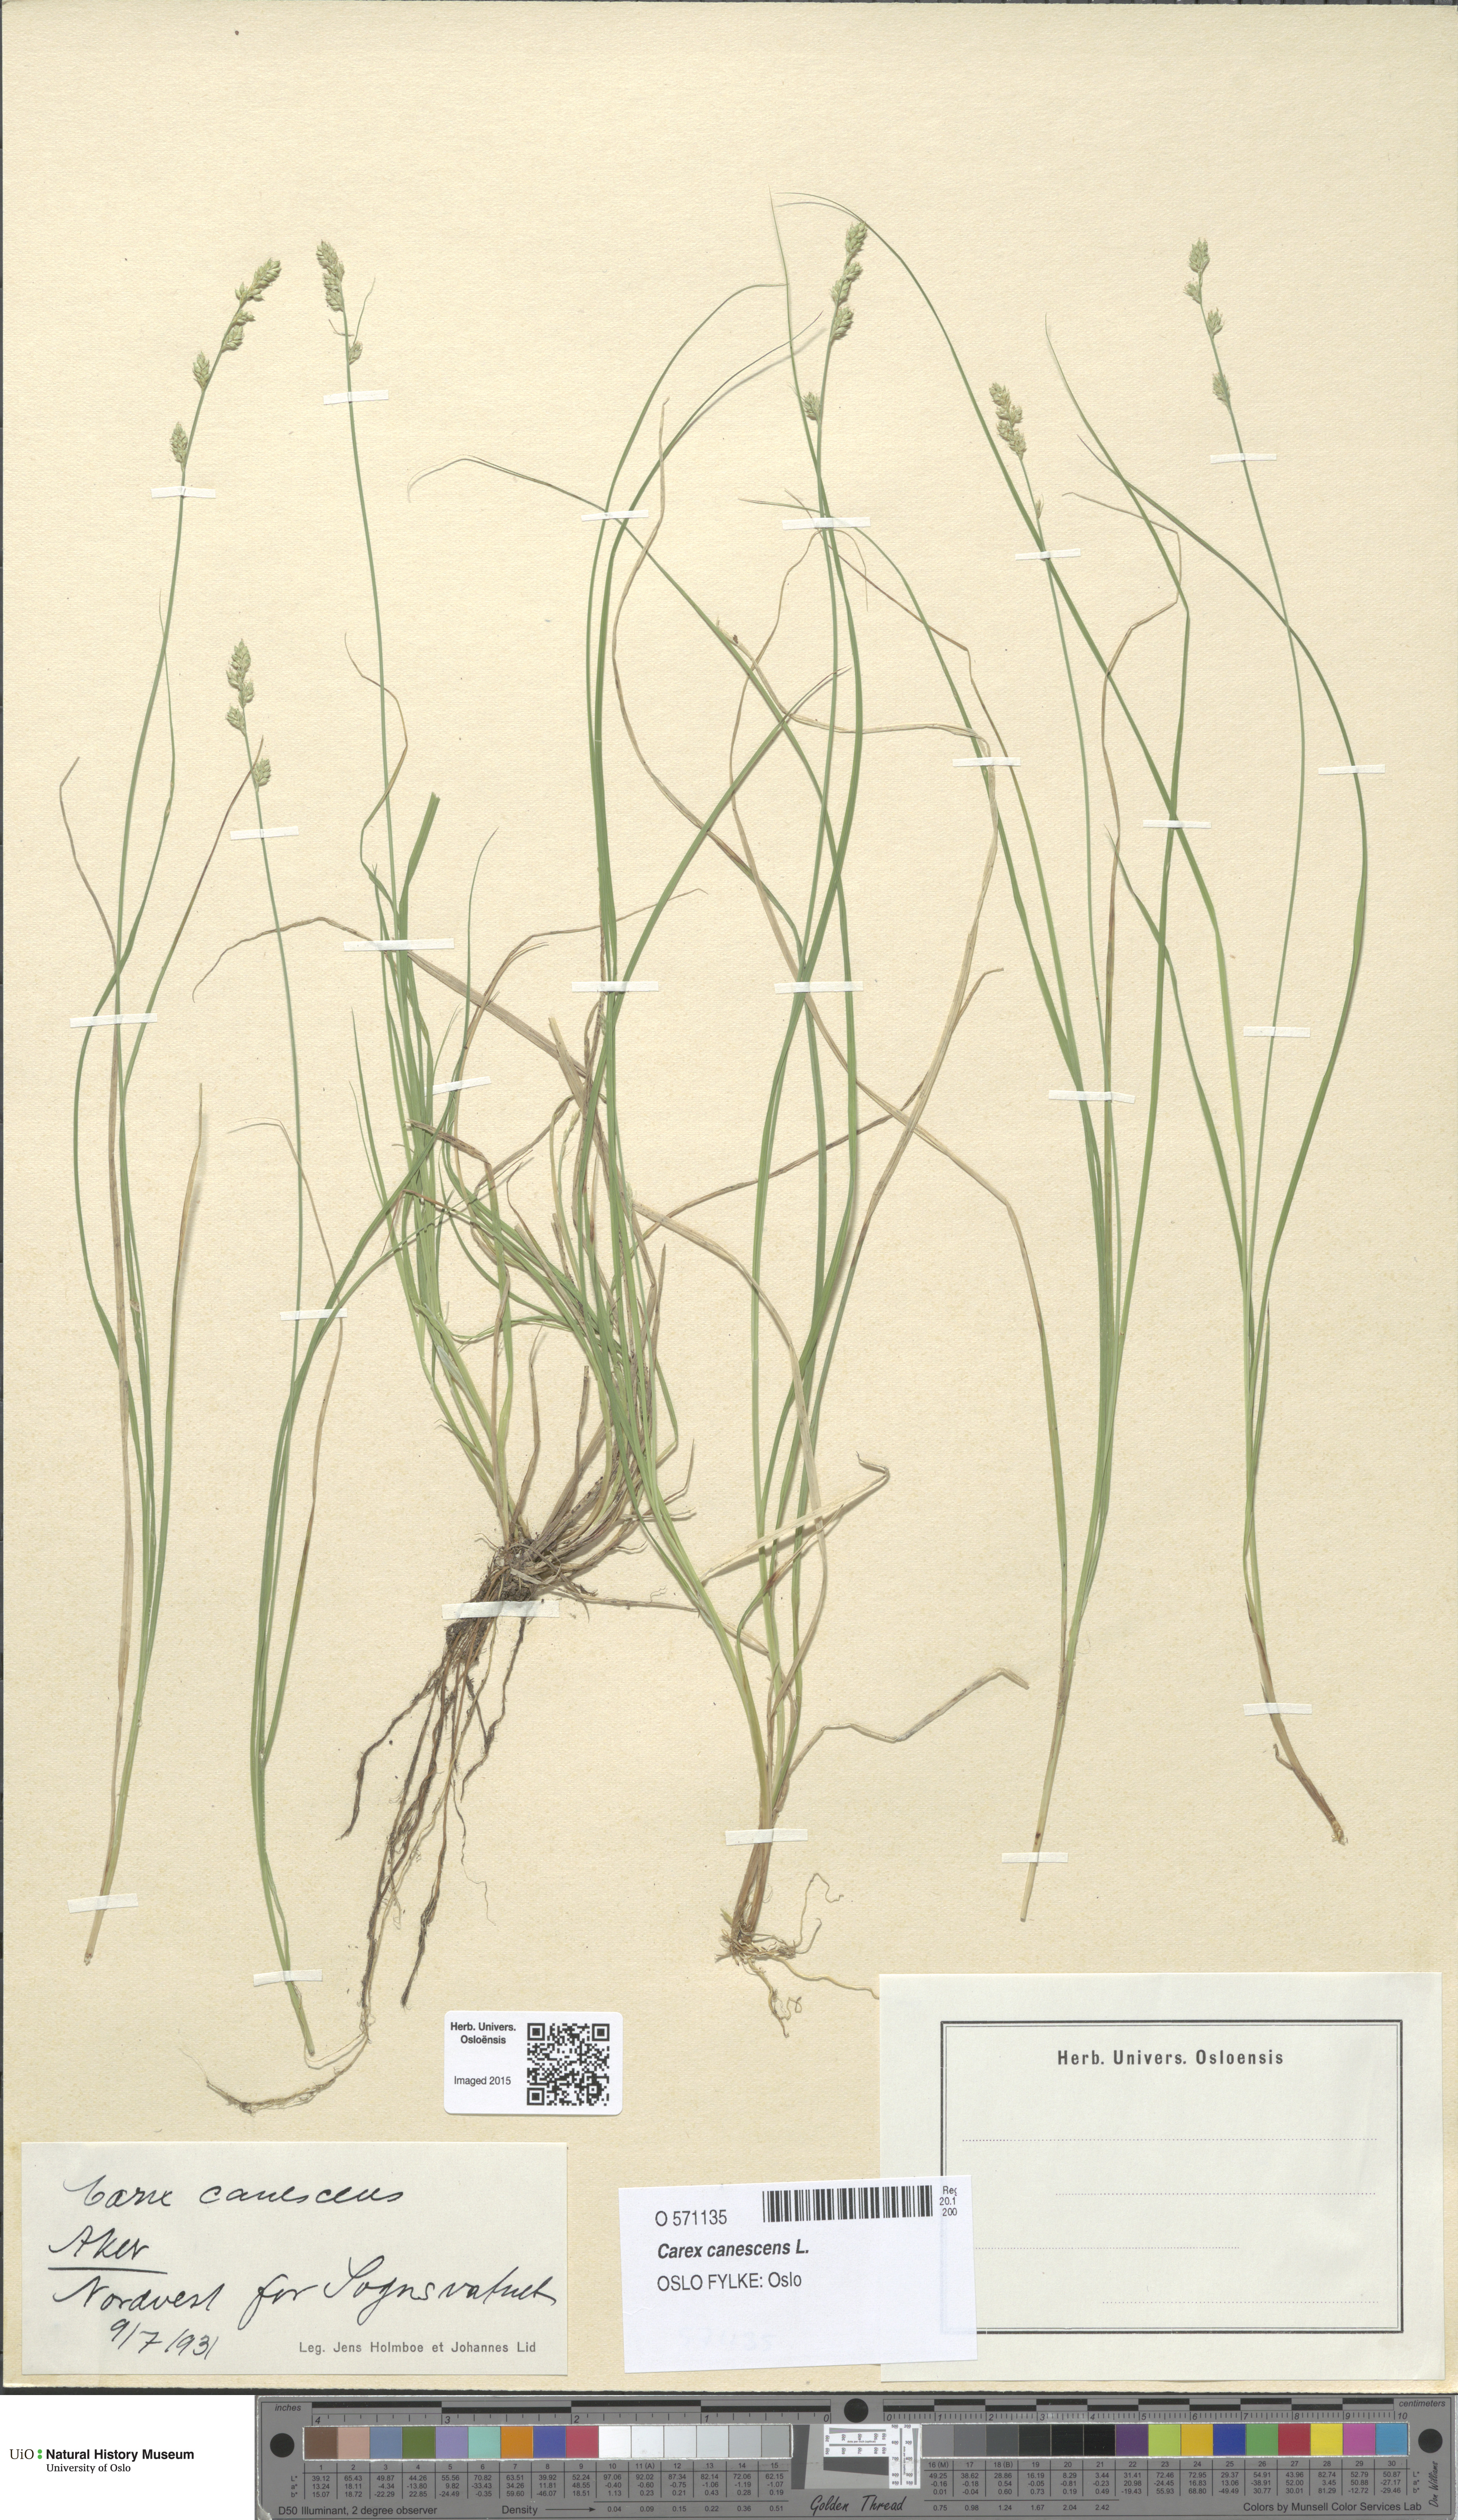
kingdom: Plantae
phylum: Tracheophyta
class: Liliopsida
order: Poales
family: Cyperaceae
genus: Carex
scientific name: Carex canescens
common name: White sedge
